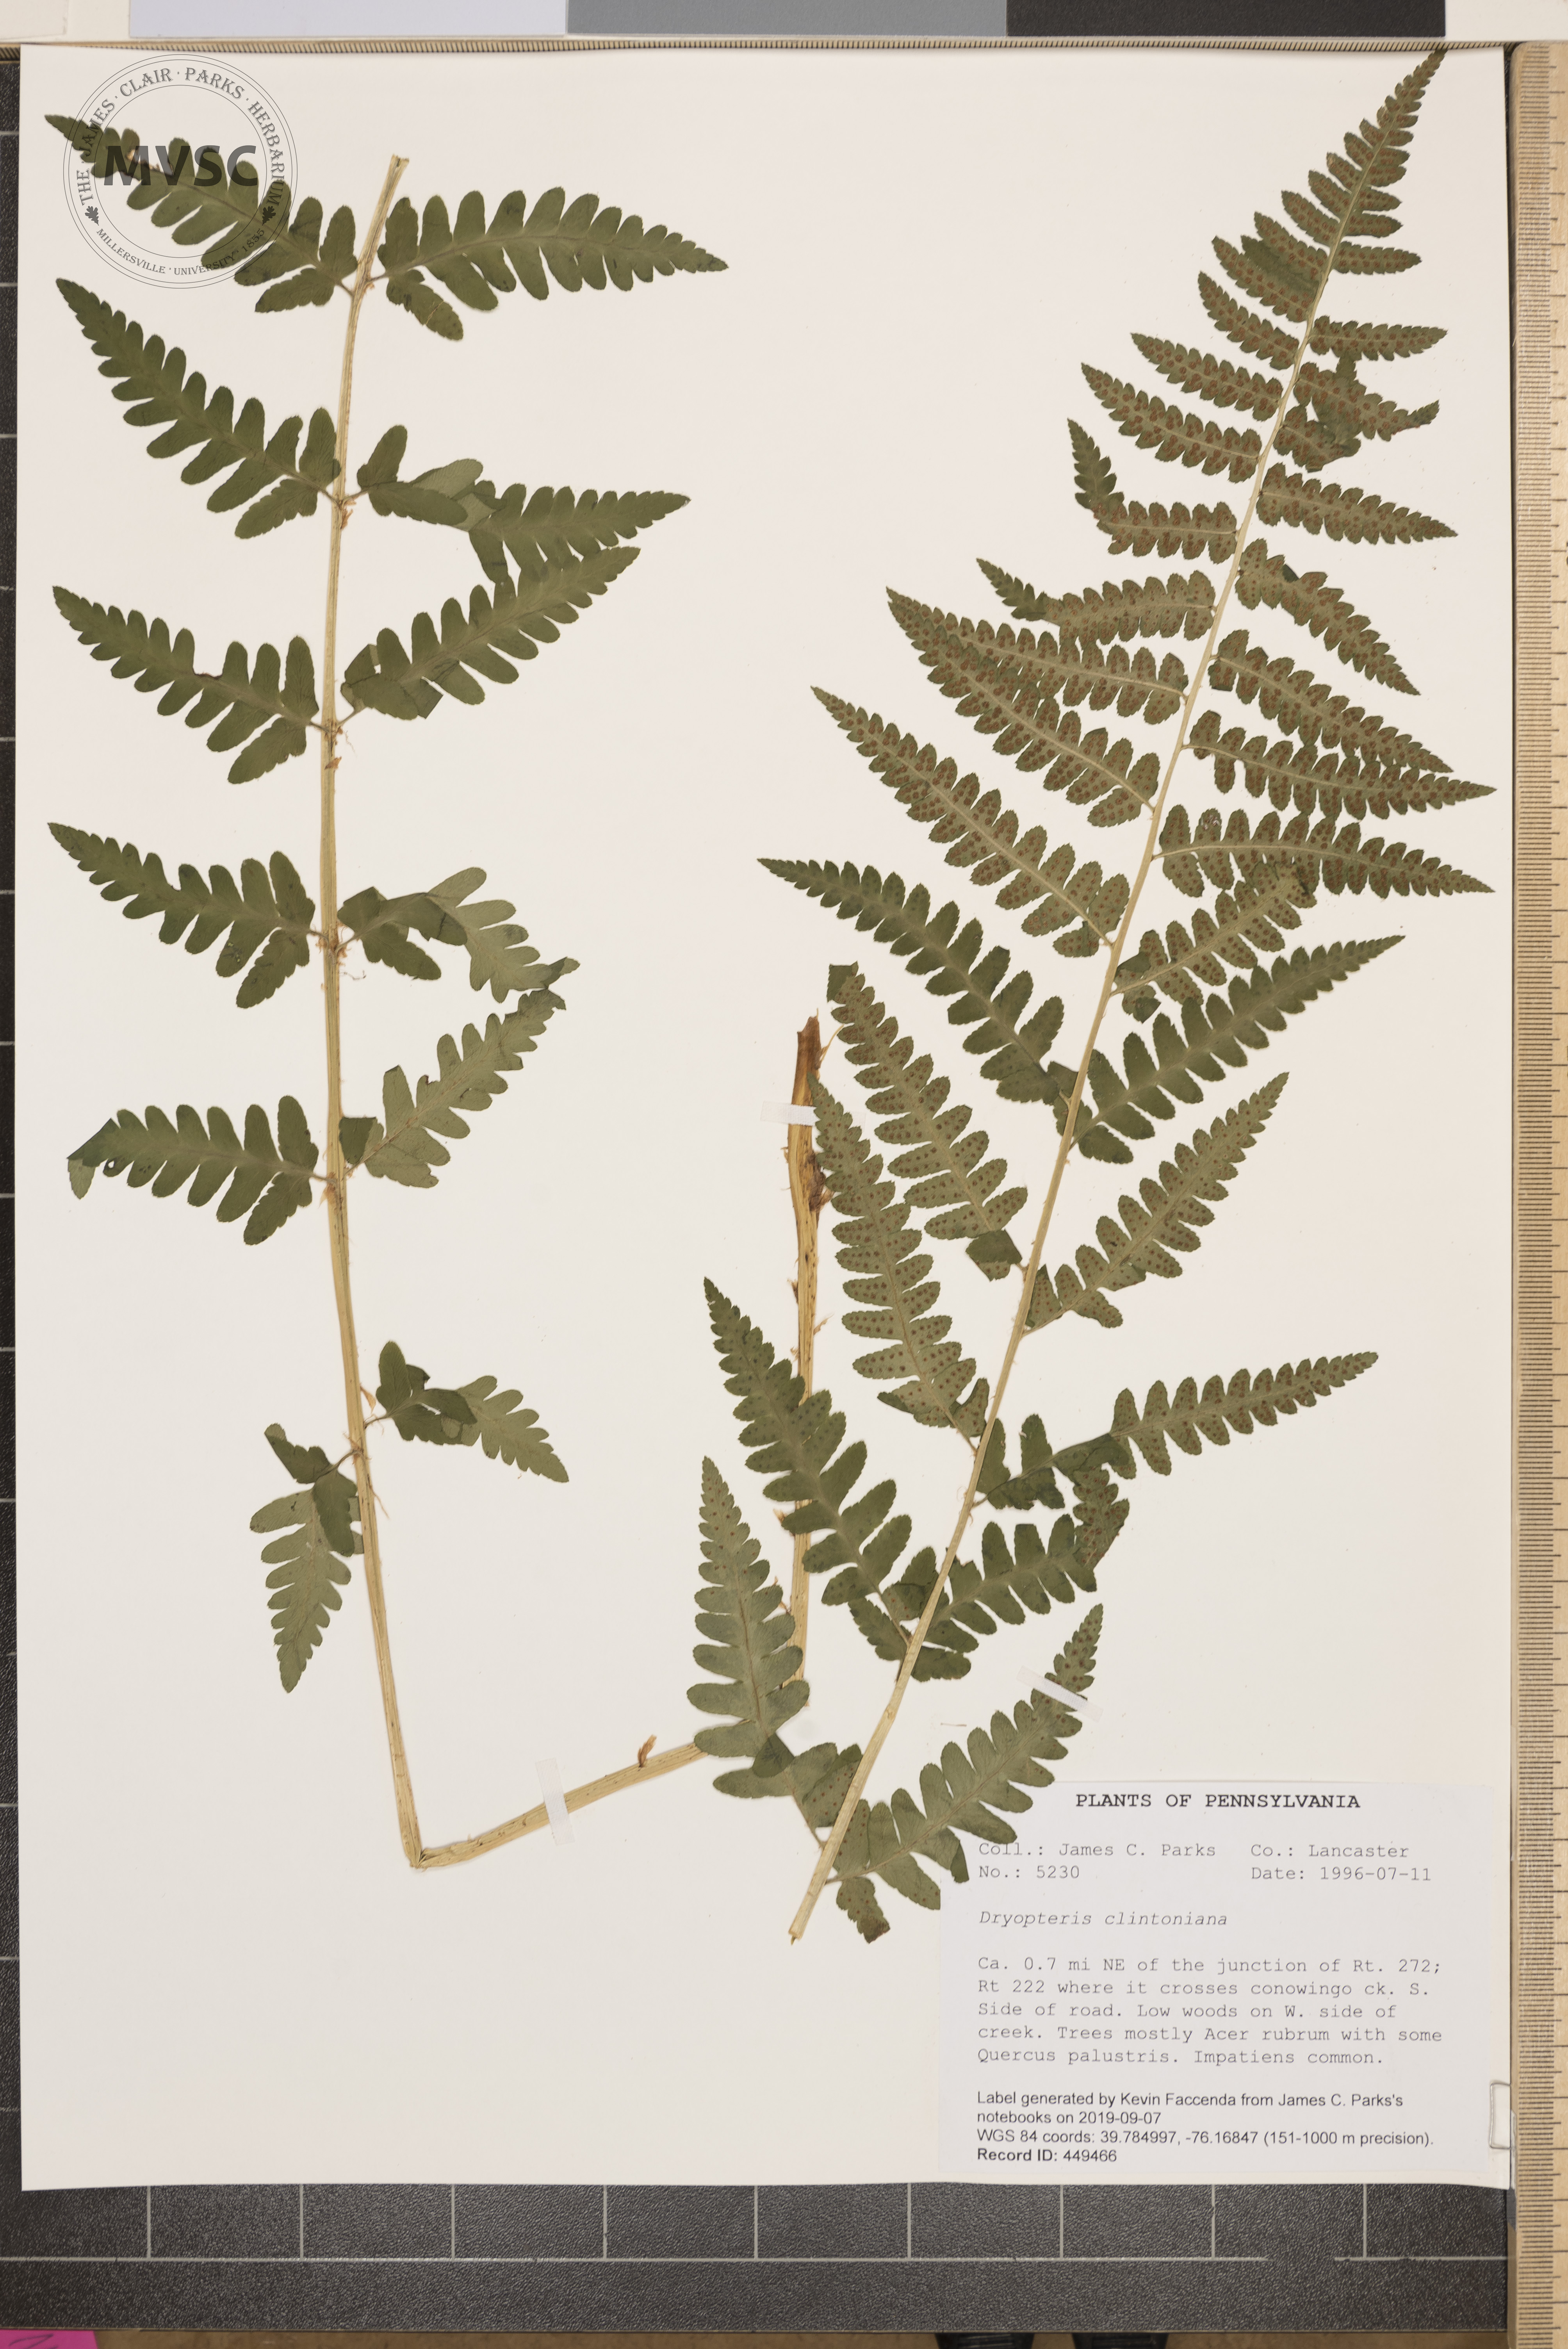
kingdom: Plantae
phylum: Tracheophyta
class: Polypodiopsida
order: Polypodiales
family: Dryopteridaceae
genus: Dryopteris
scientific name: Dryopteris clintoniana
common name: Clinton's wood fern
